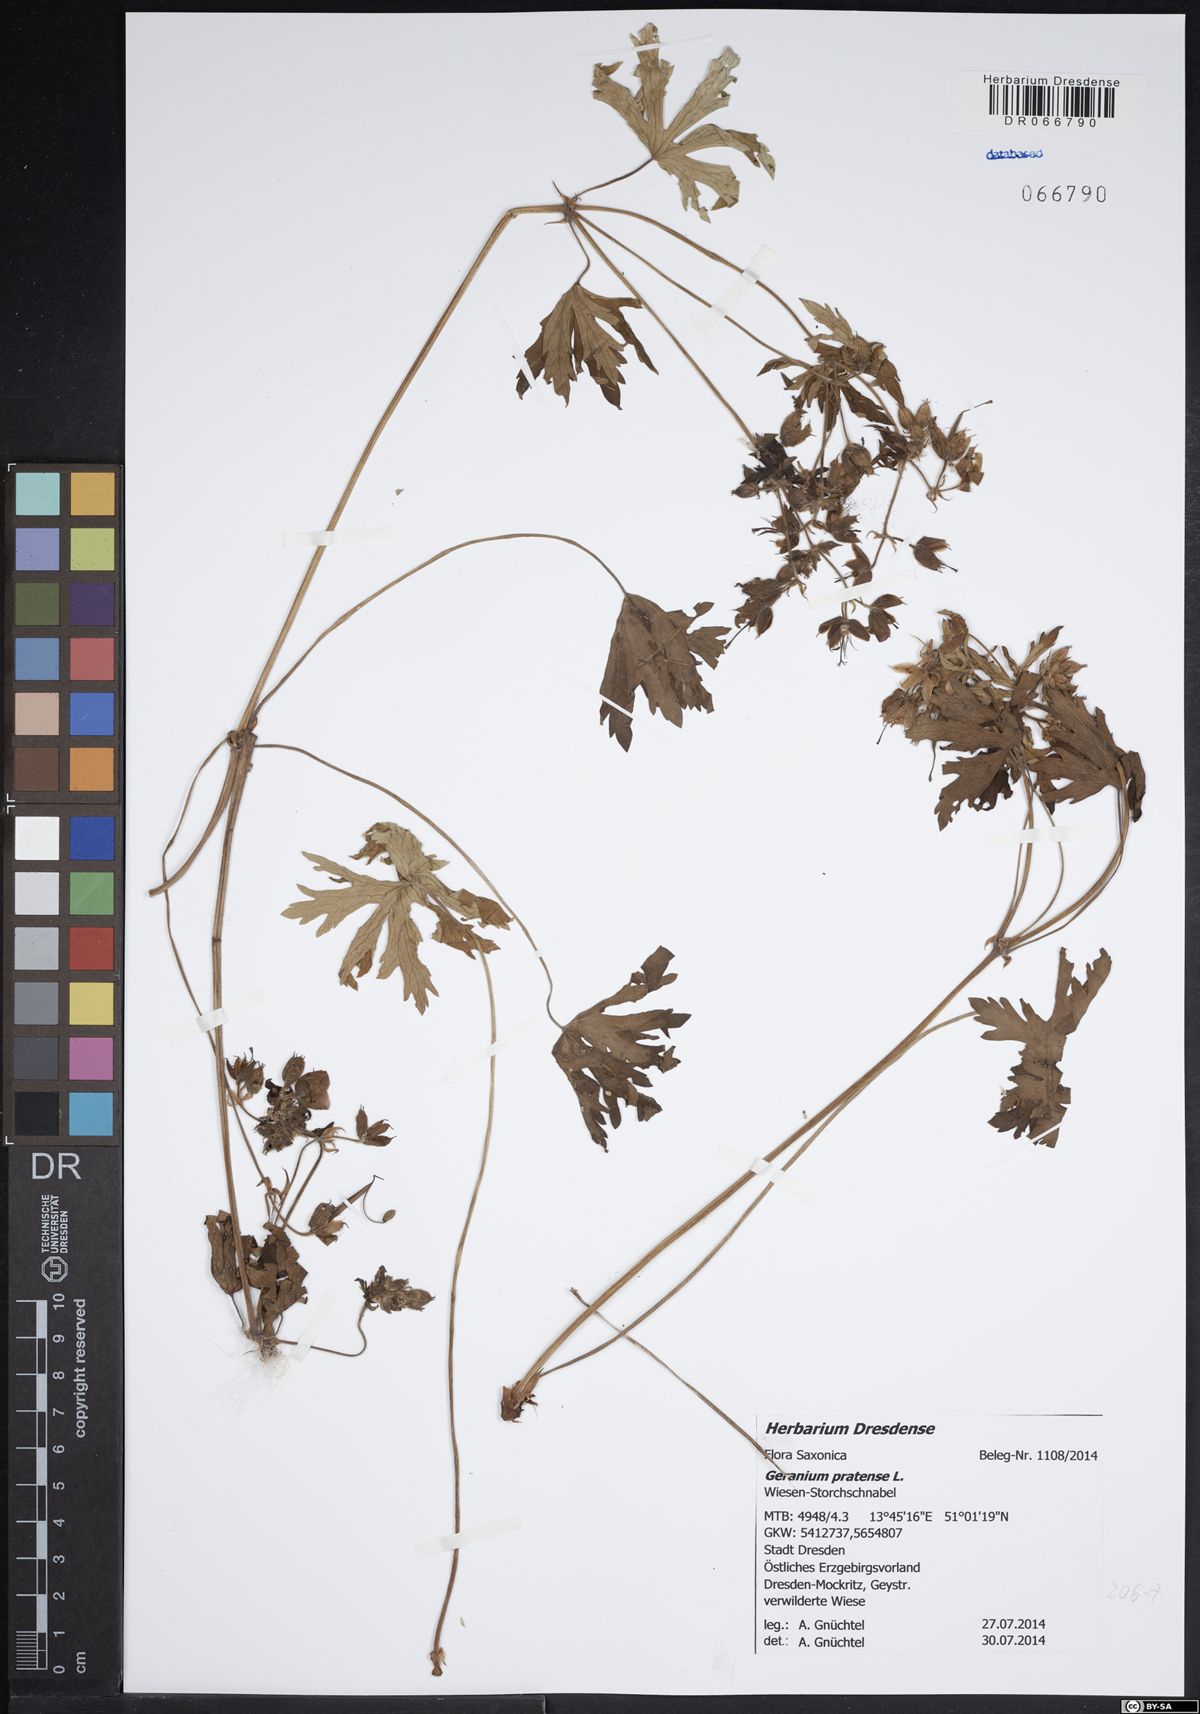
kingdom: Plantae
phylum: Tracheophyta
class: Magnoliopsida
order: Geraniales
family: Geraniaceae
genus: Geranium
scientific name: Geranium pratense
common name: Meadow crane's-bill
